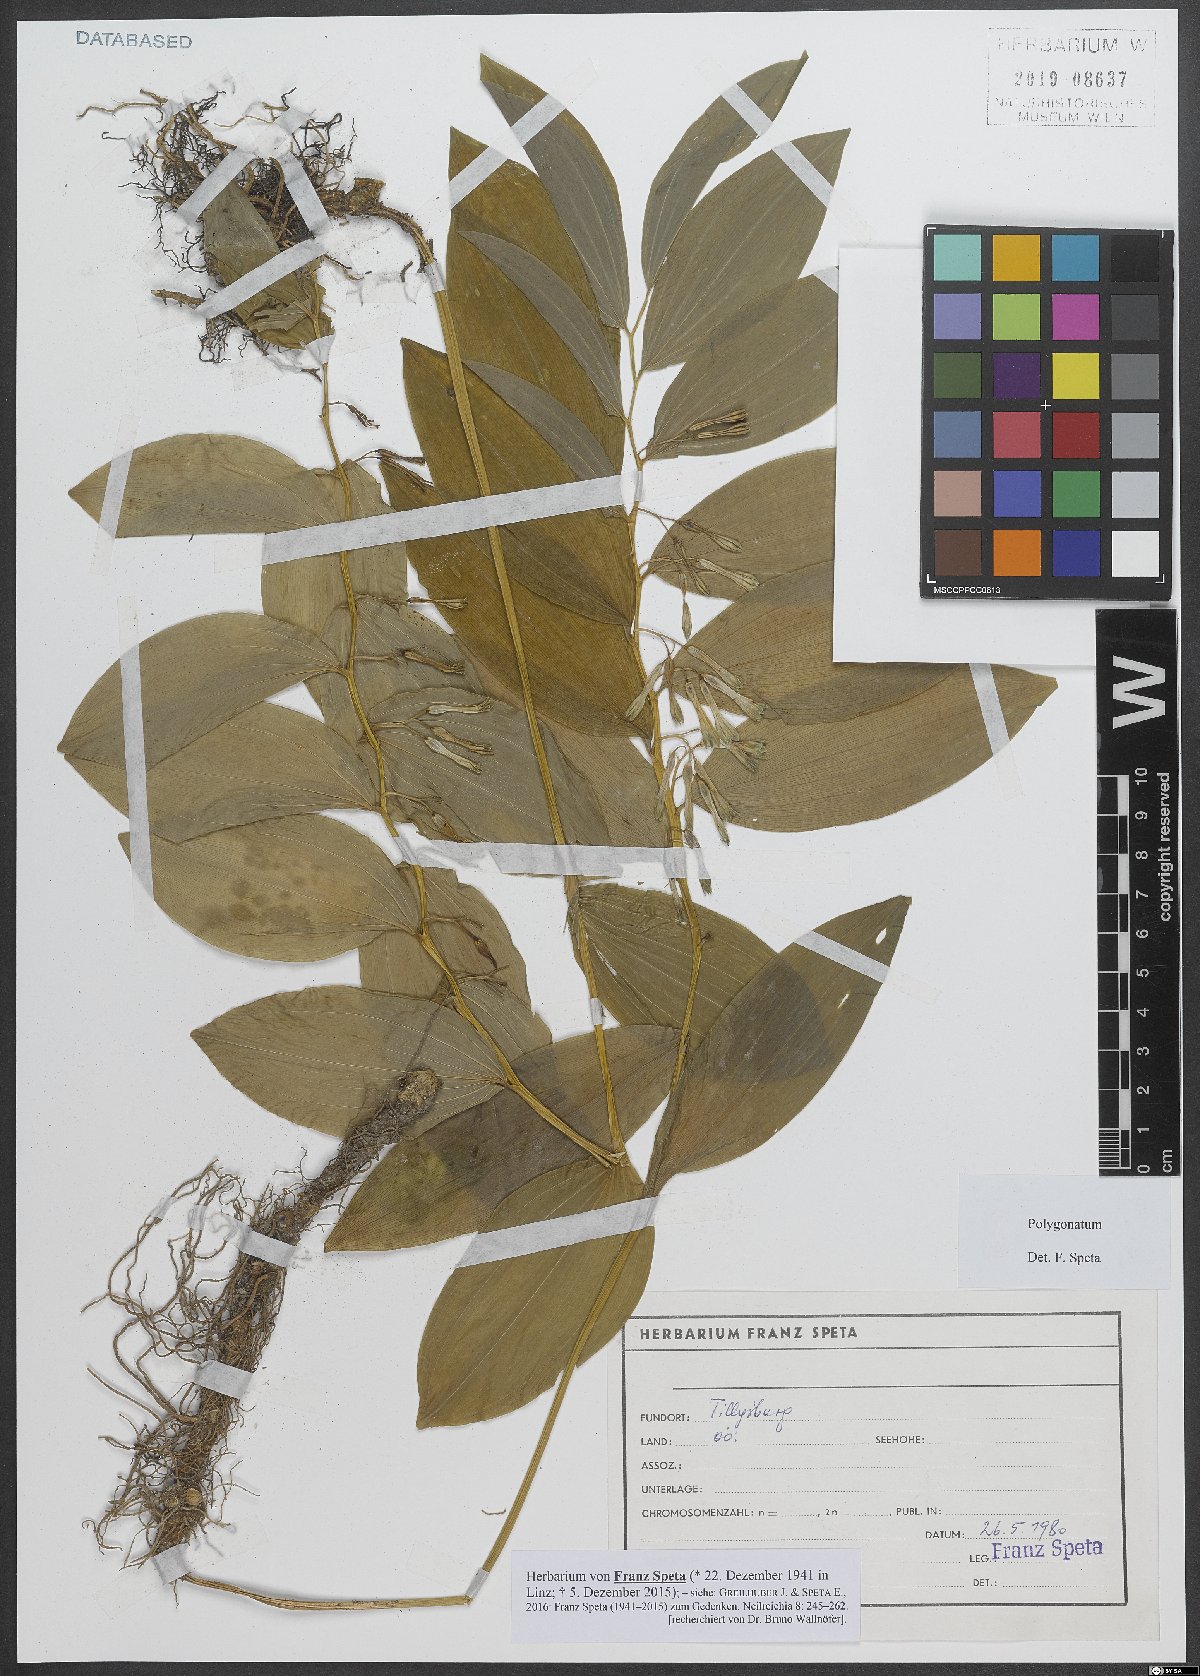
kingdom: Plantae
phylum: Tracheophyta
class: Liliopsida
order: Asparagales
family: Asparagaceae
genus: Polygonatum
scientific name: Polygonatum
